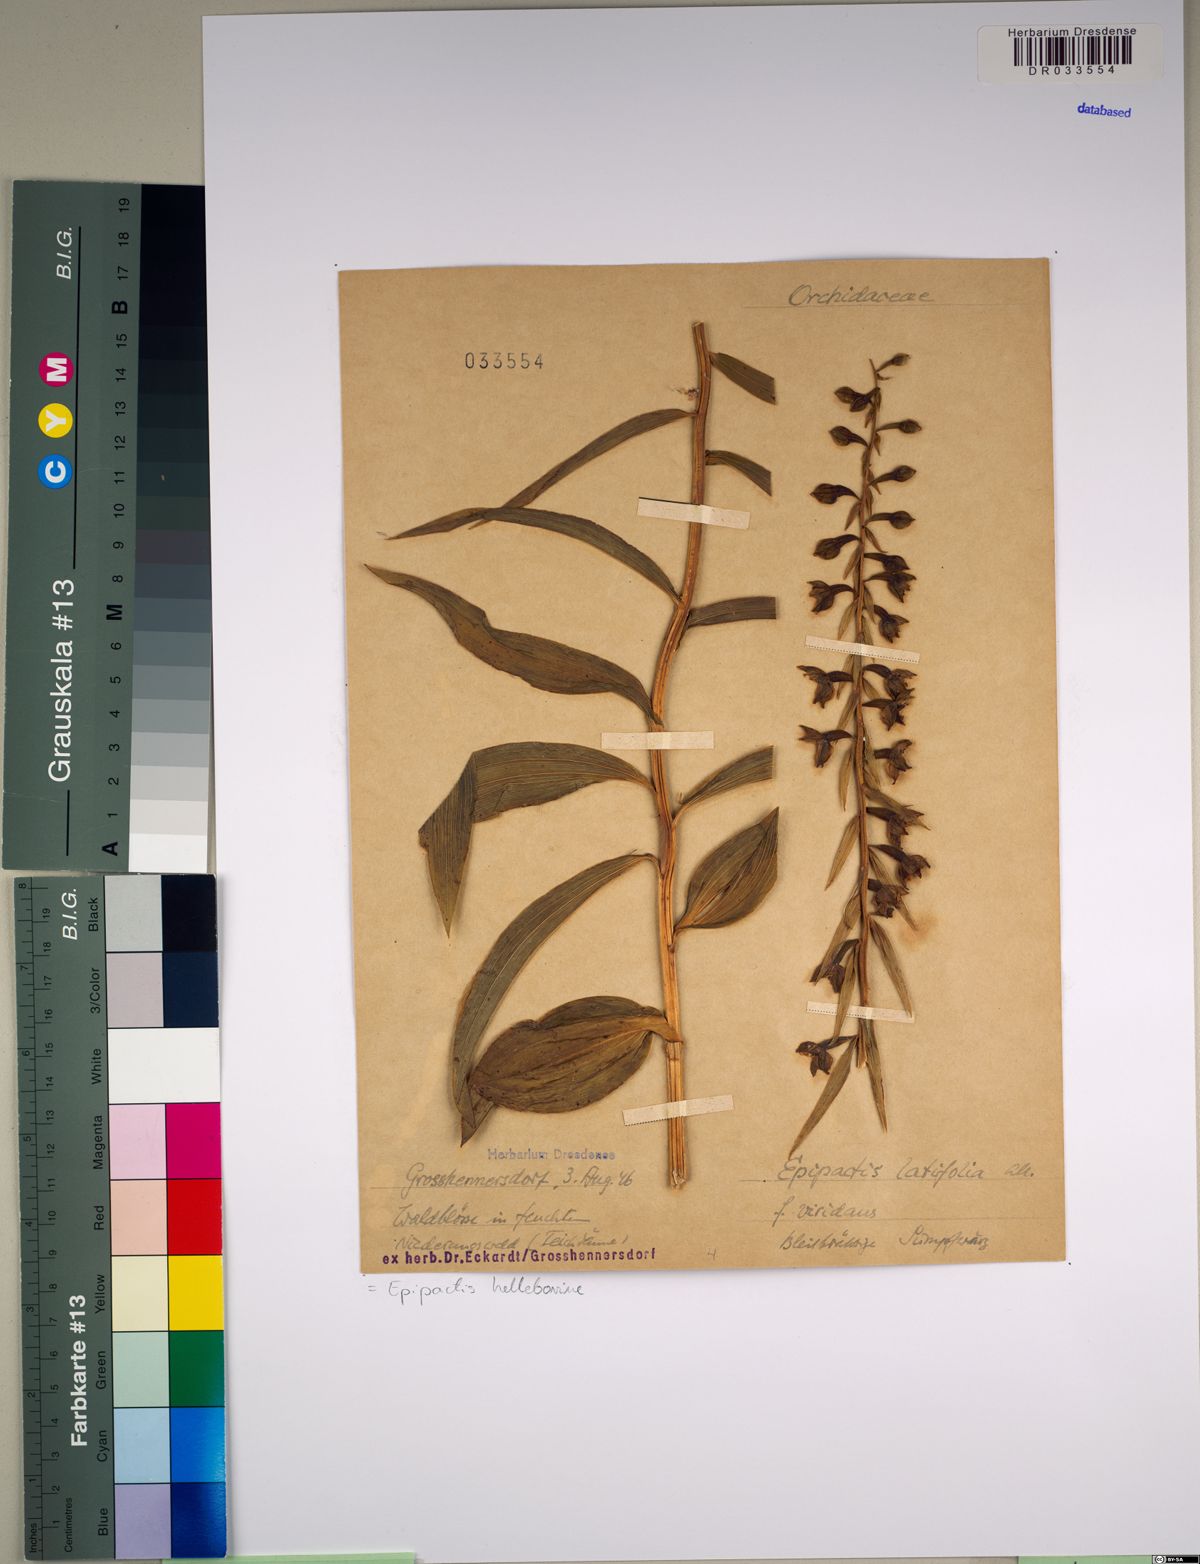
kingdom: Plantae
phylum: Tracheophyta
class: Liliopsida
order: Asparagales
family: Orchidaceae
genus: Epipactis
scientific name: Epipactis helleborine
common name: Broad-leaved helleborine
